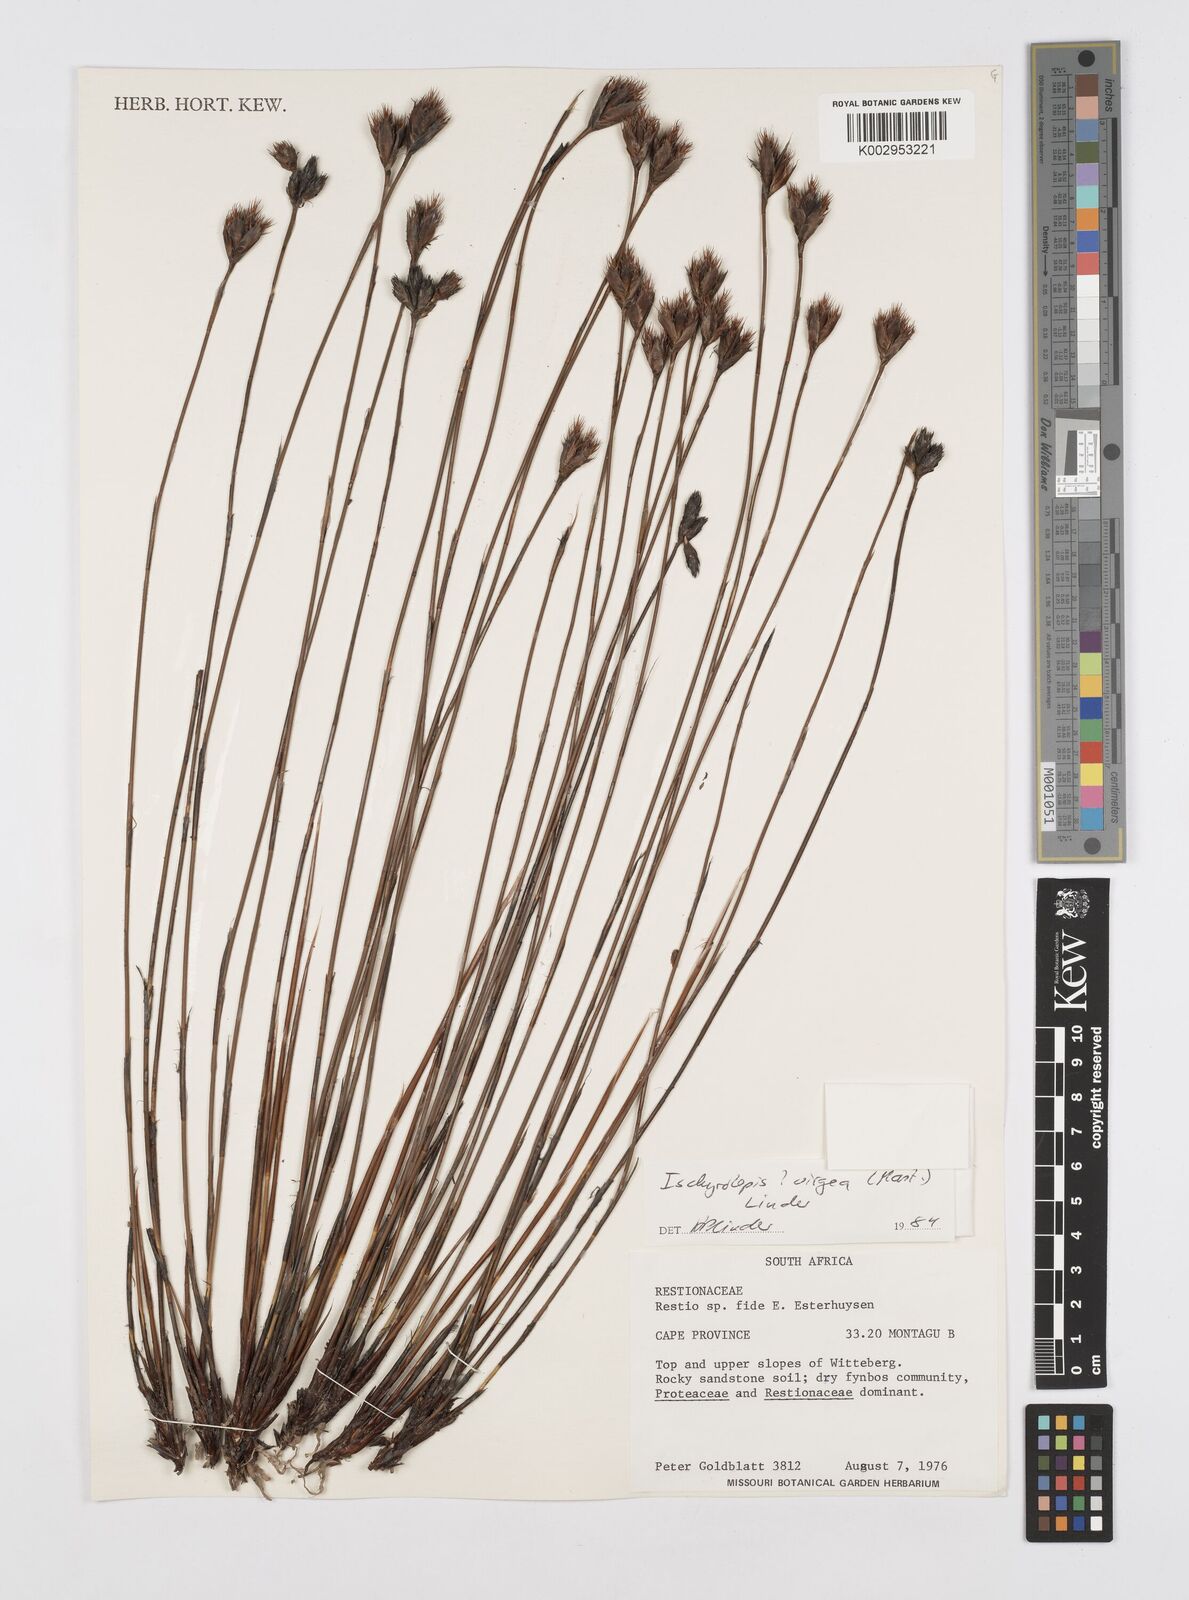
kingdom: Plantae
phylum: Tracheophyta
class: Liliopsida
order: Poales
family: Restionaceae
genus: Restio
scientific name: Restio
